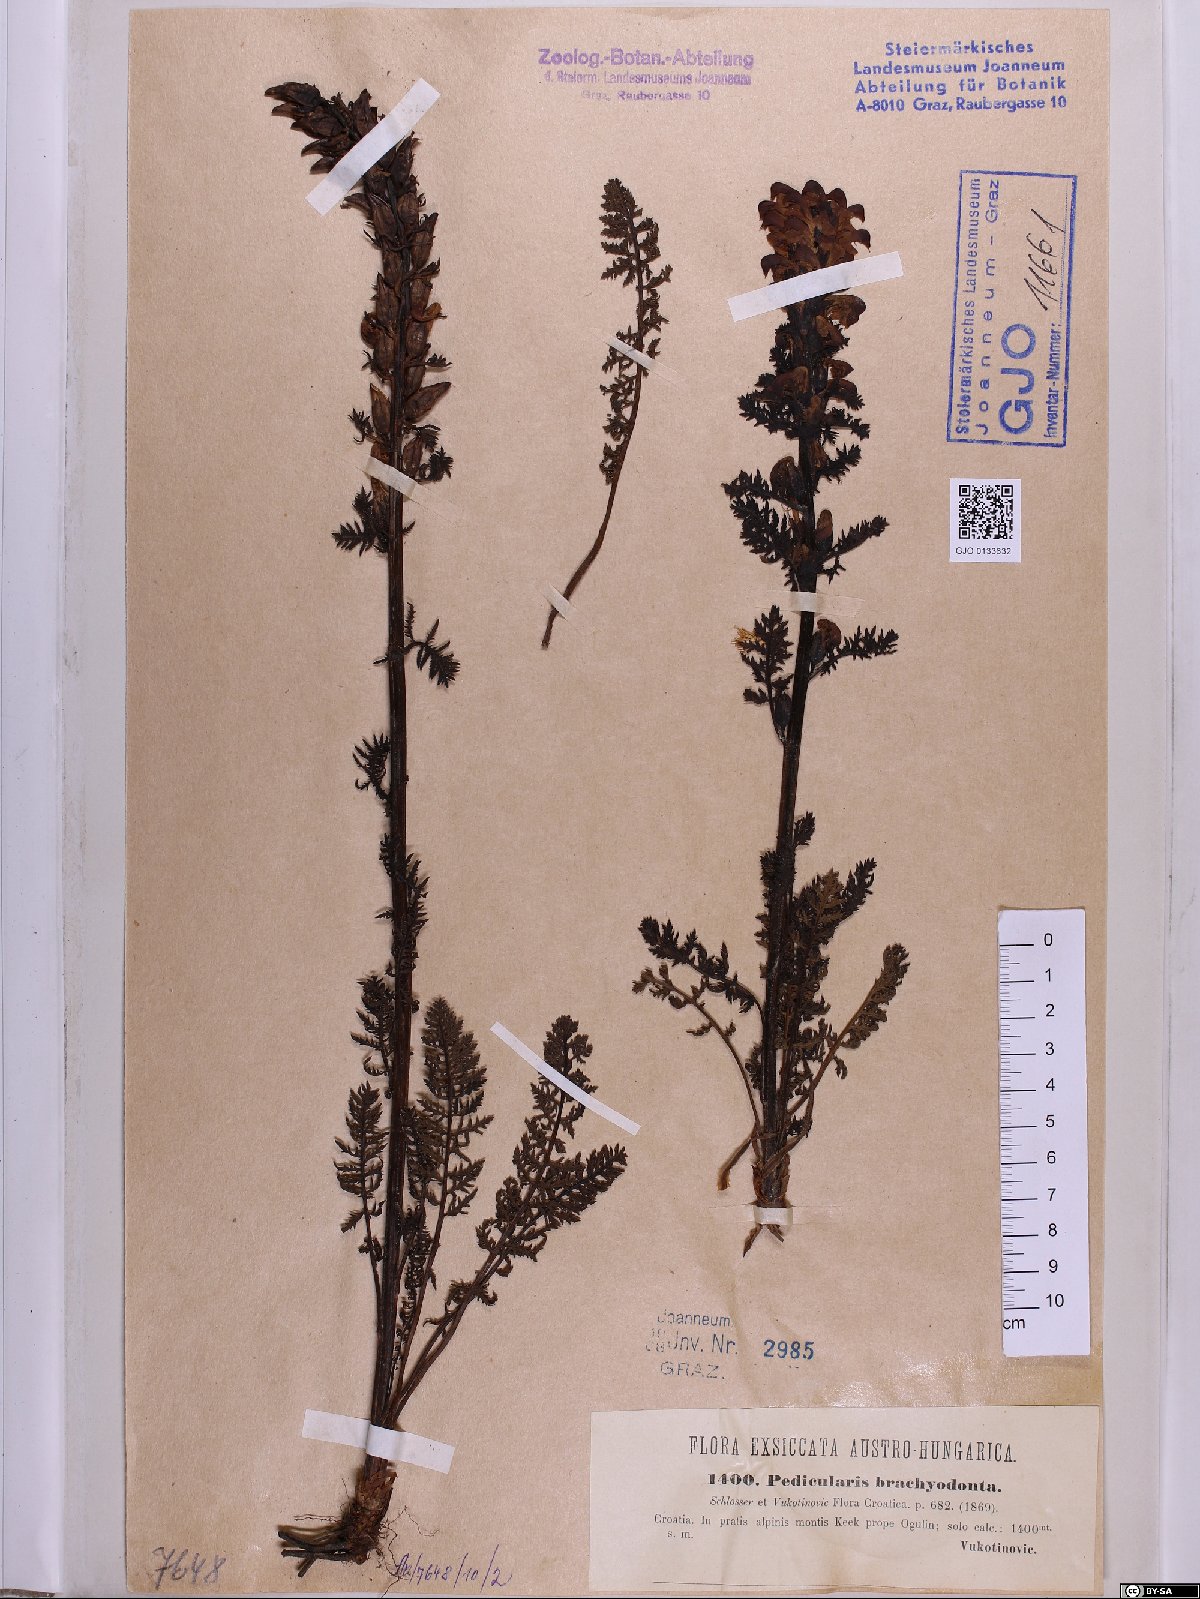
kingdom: Plantae
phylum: Tracheophyta
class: Magnoliopsida
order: Lamiales
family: Orobanchaceae
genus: Pedicularis
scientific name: Pedicularis brachyodonta
